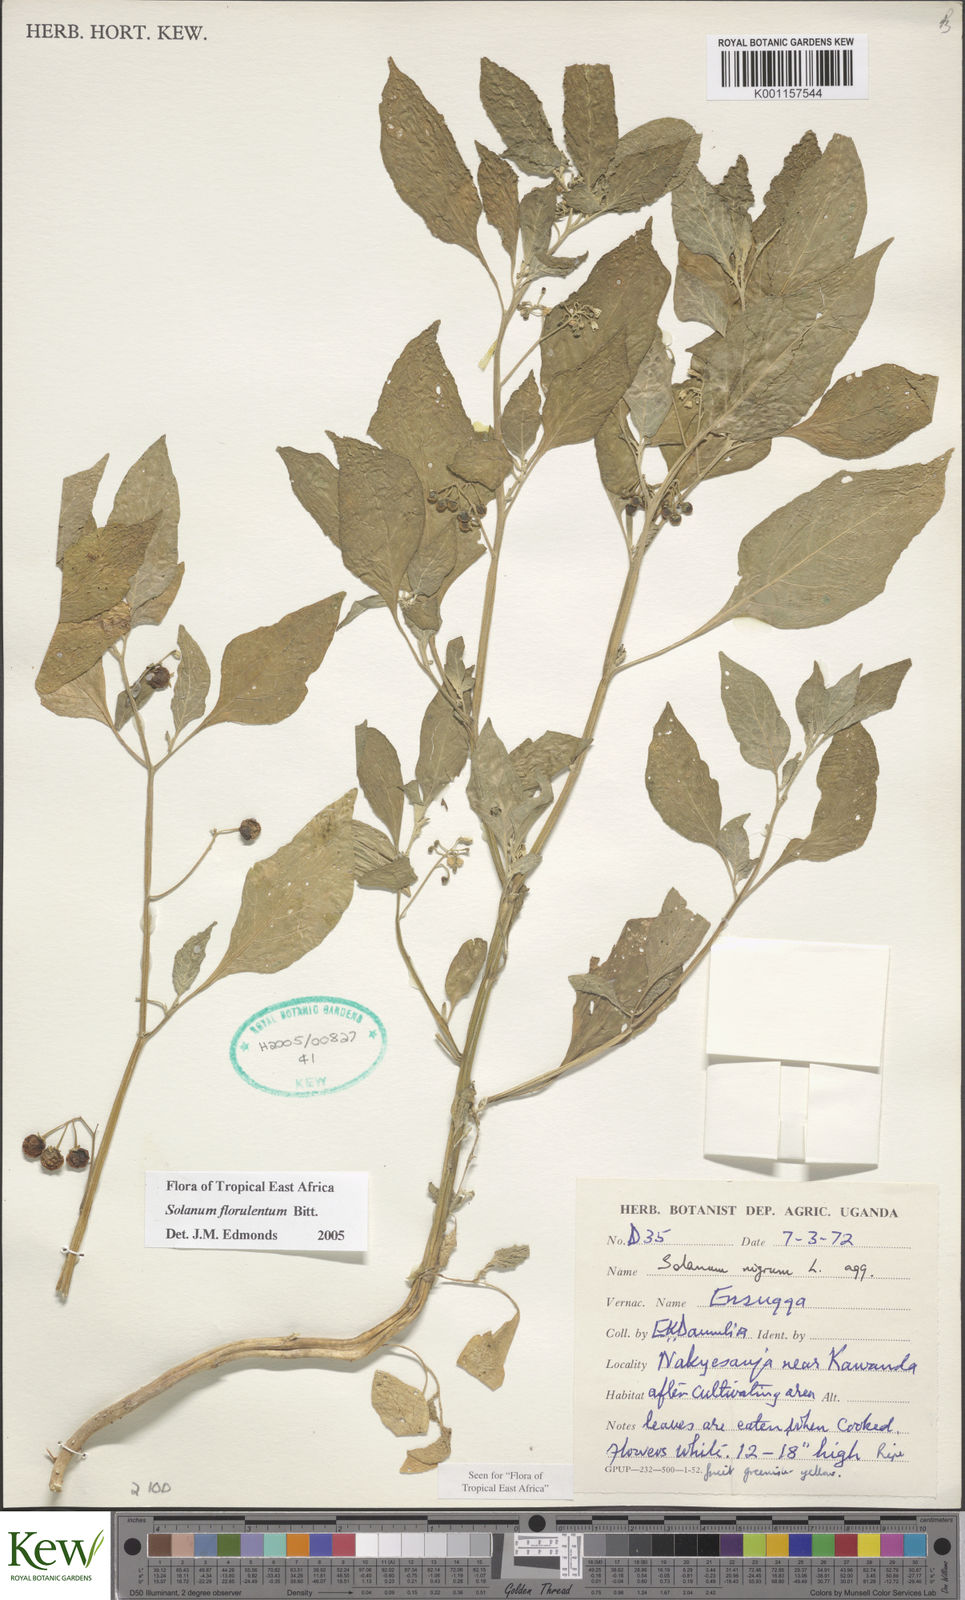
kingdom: Plantae
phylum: Tracheophyta
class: Magnoliopsida
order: Solanales
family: Solanaceae
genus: Solanum
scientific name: Solanum tarderemotum
